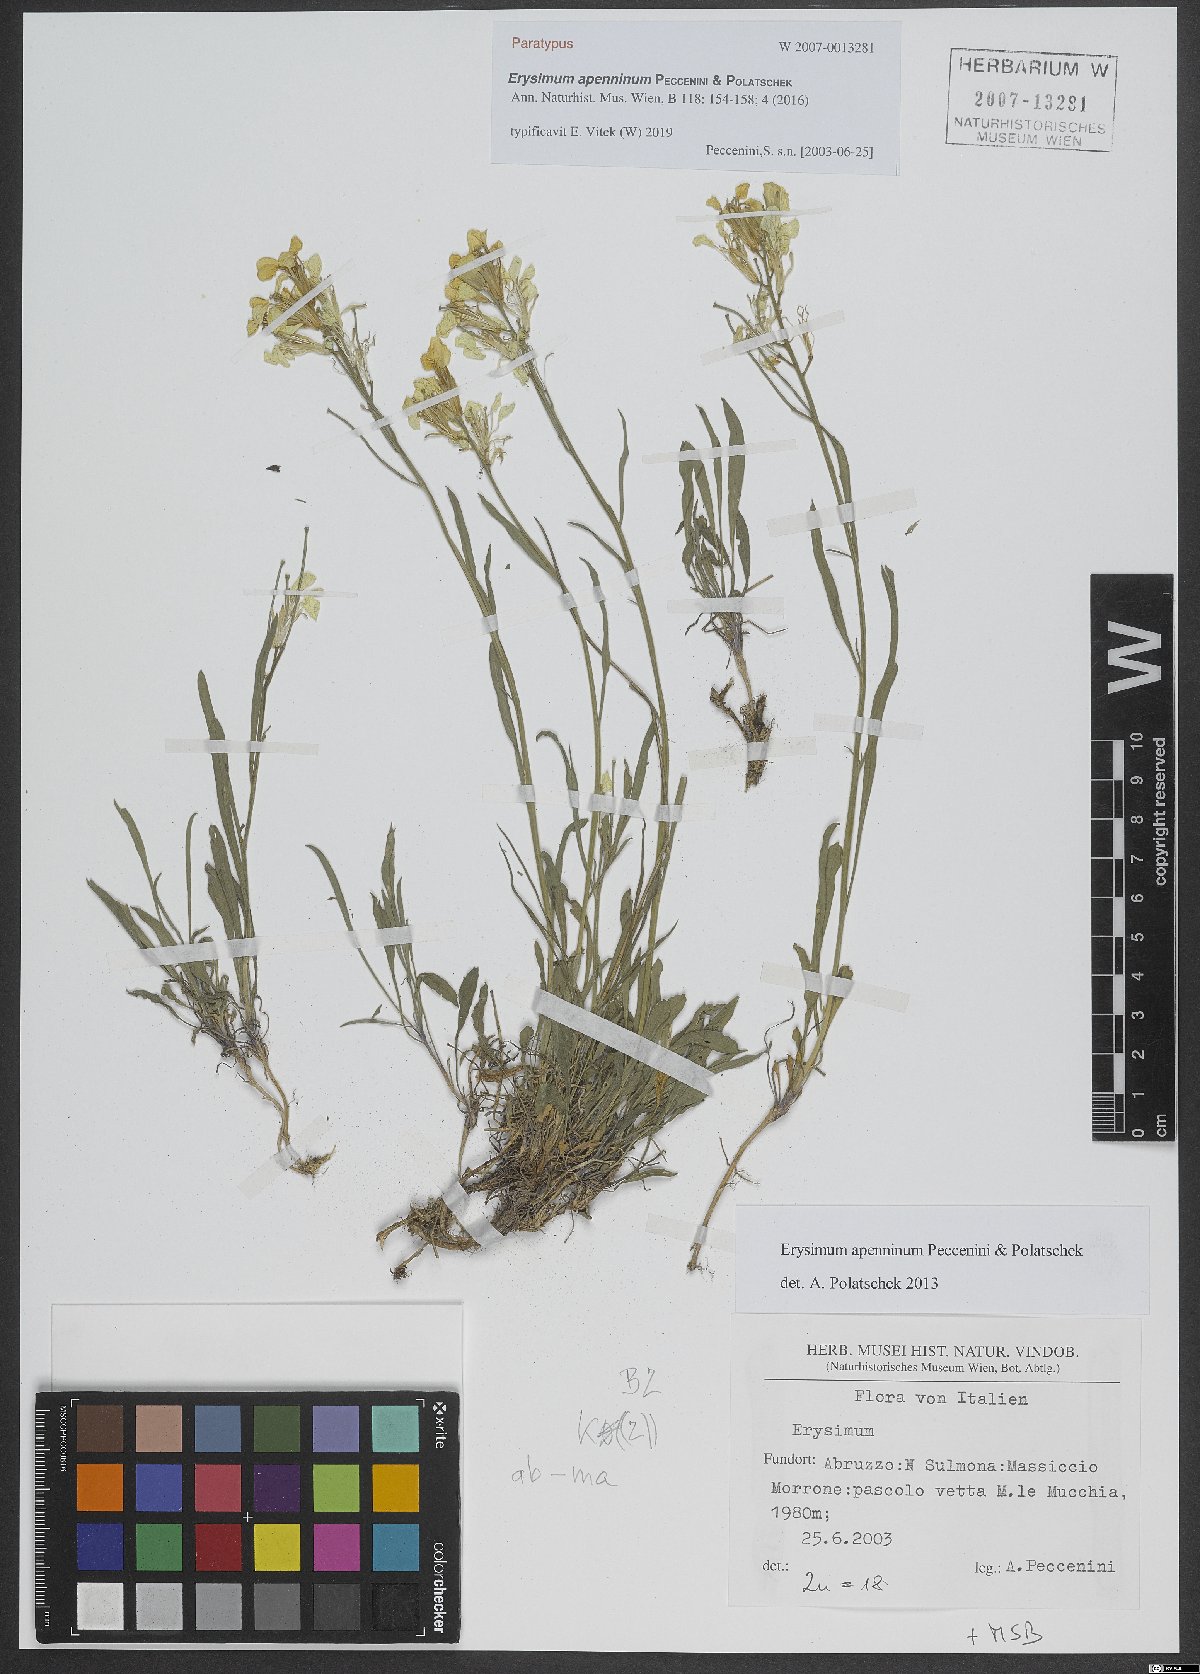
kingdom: Plantae
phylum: Tracheophyta
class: Magnoliopsida
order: Brassicales
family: Brassicaceae
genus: Erysimum
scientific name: Erysimum apenninum
